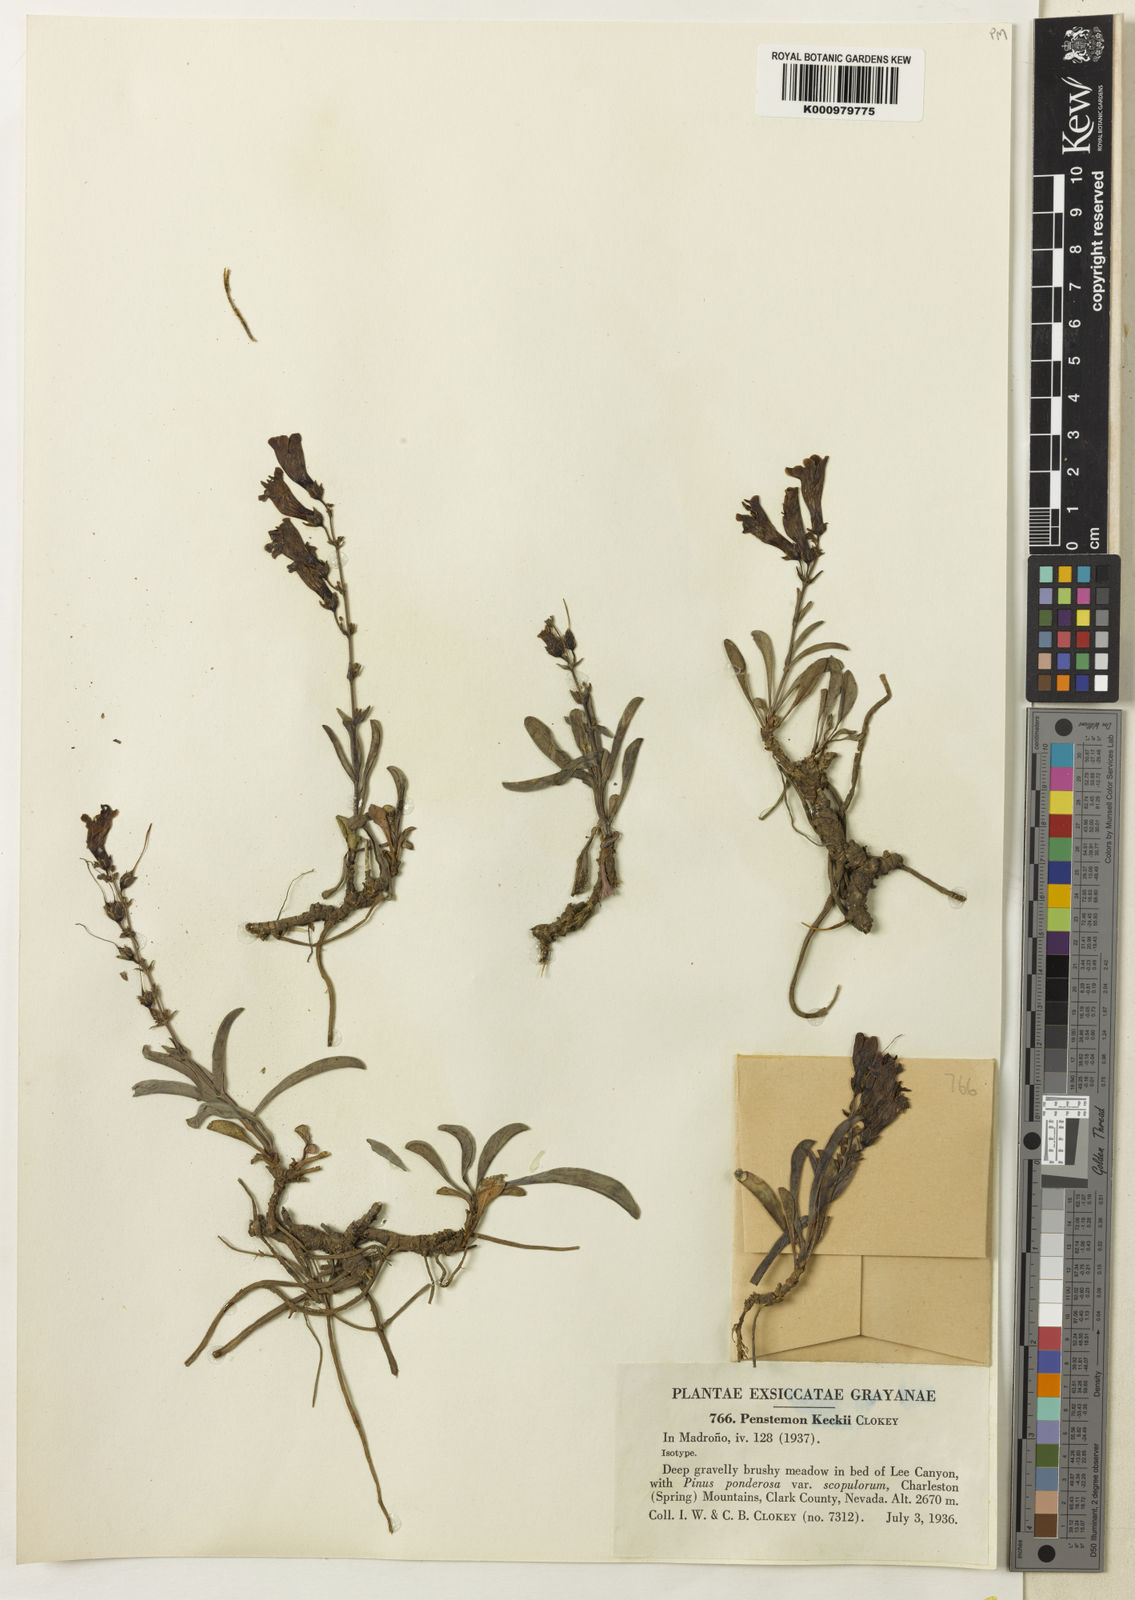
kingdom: Plantae
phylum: Tracheophyta
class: Magnoliopsida
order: Lamiales
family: Plantaginaceae
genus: Penstemon
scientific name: Penstemon leiophyllus
